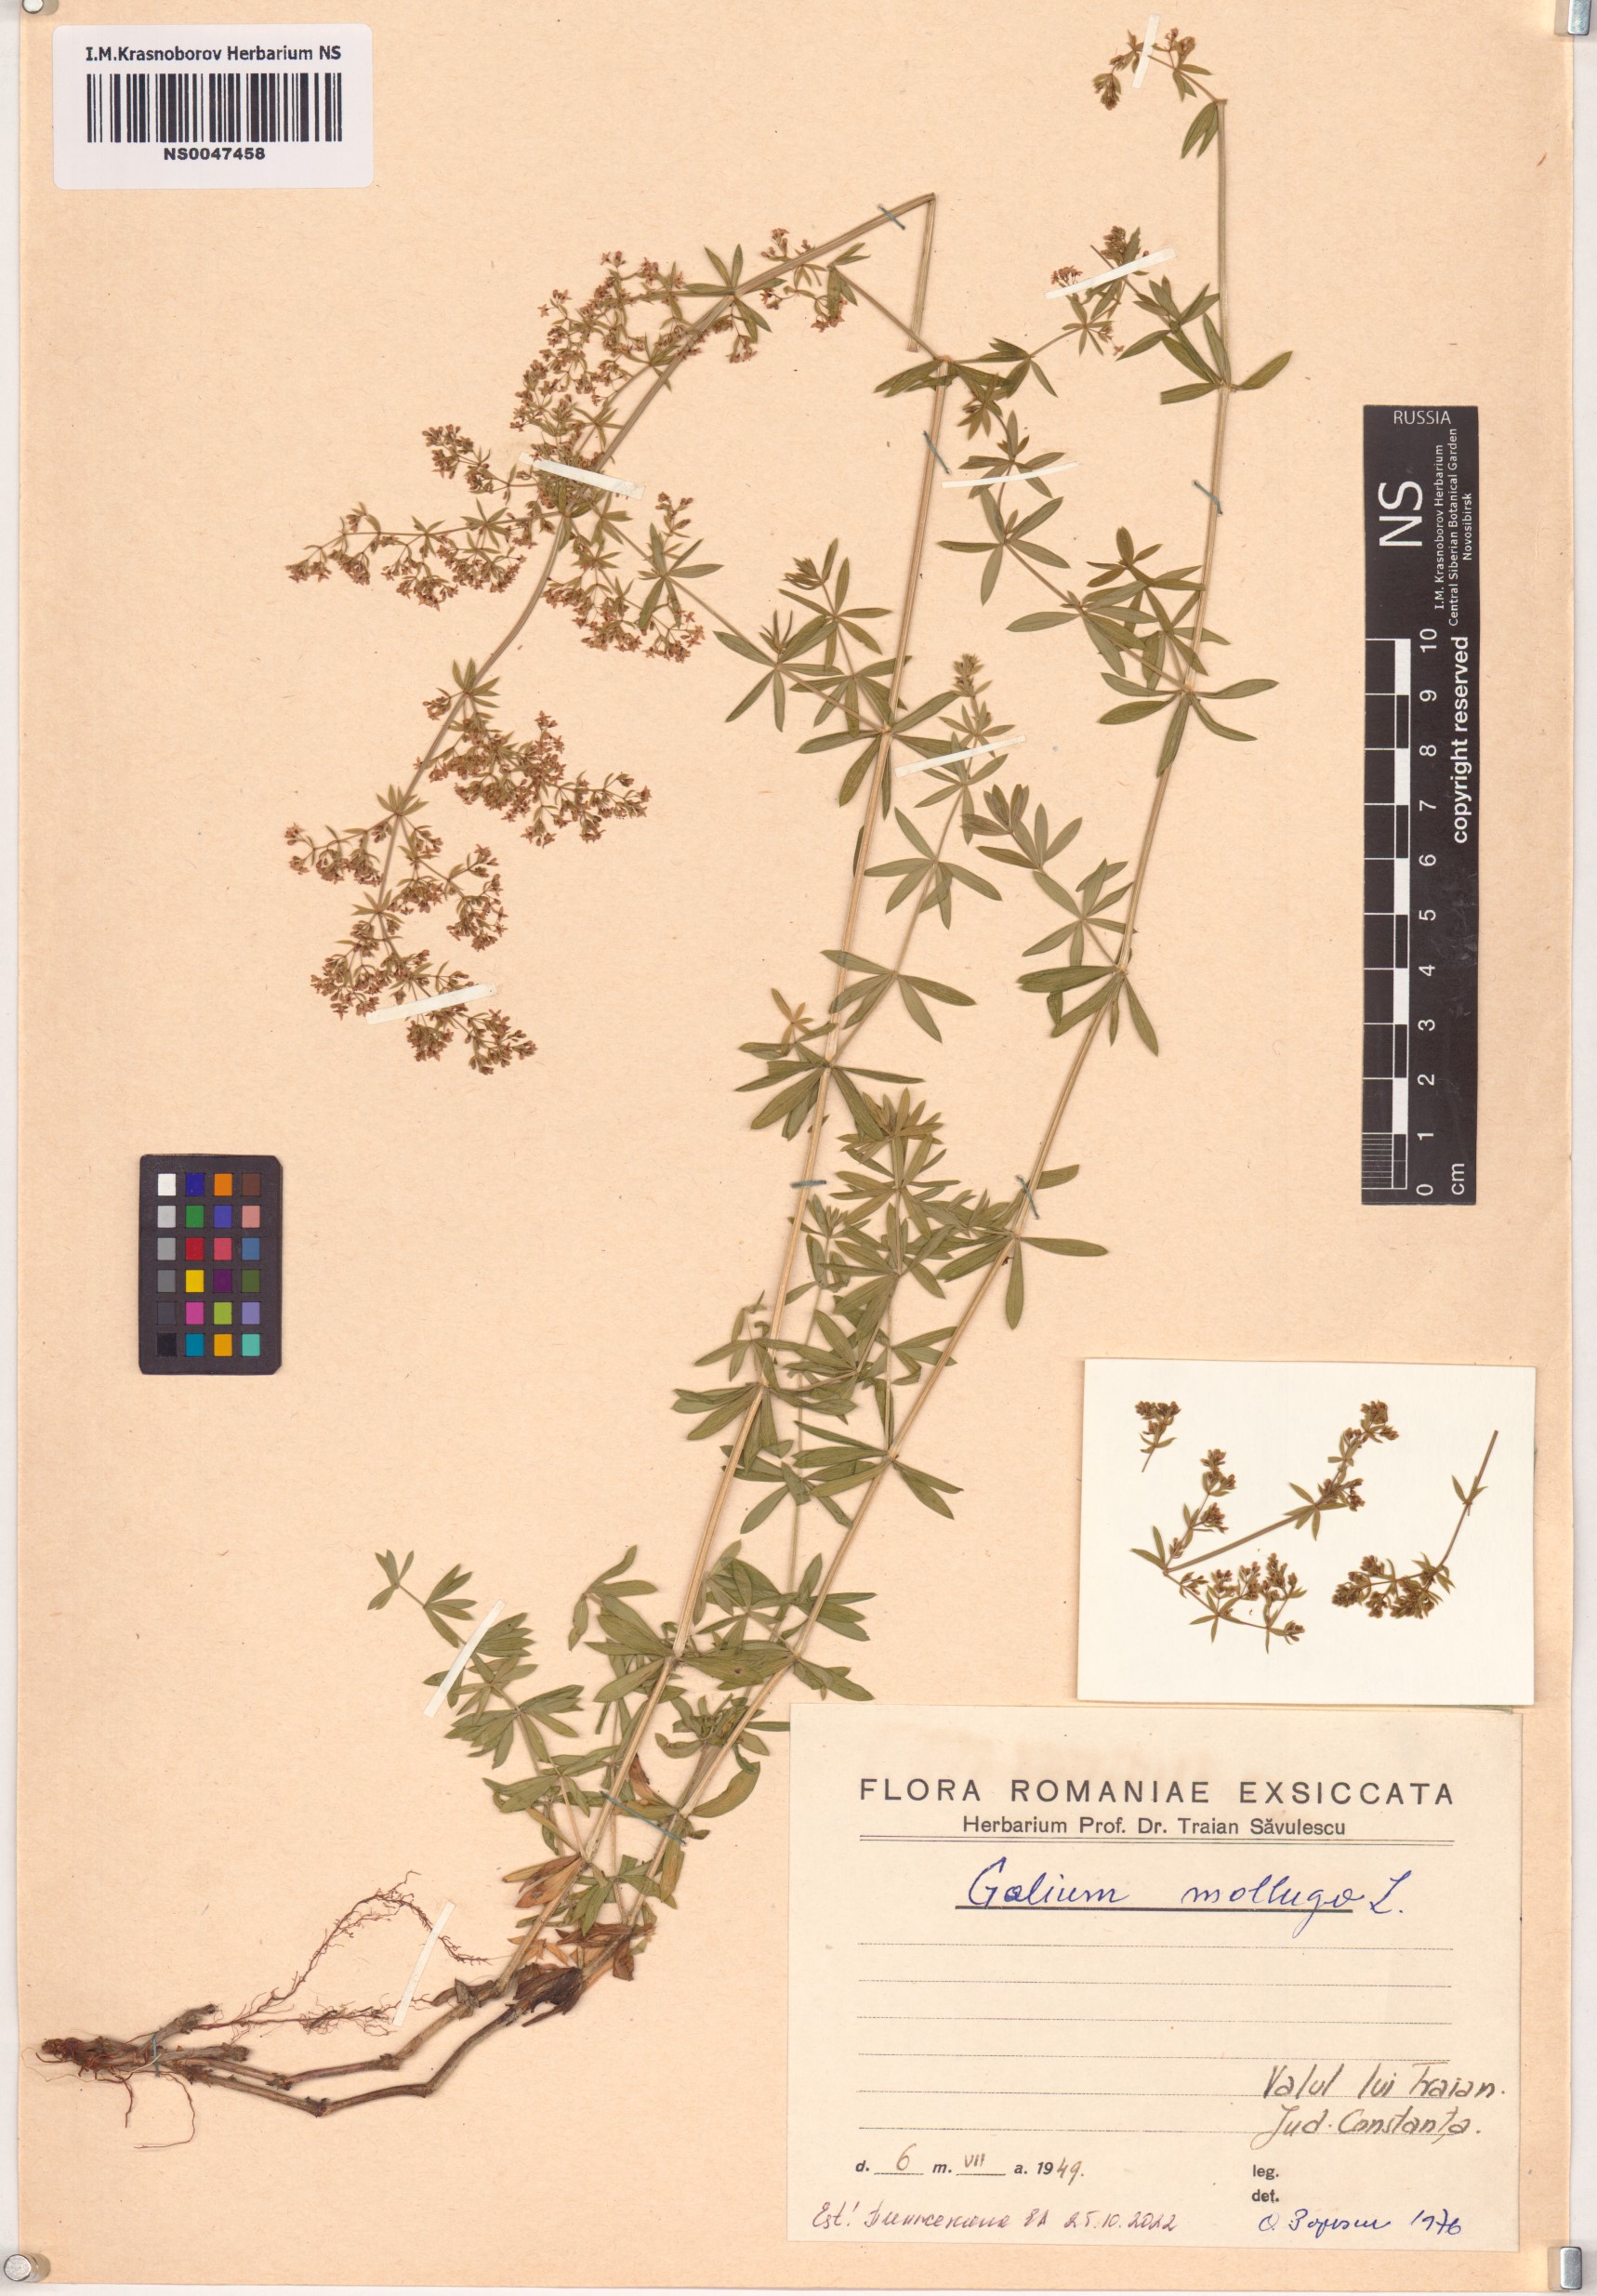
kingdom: Plantae
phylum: Tracheophyta
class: Magnoliopsida
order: Gentianales
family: Rubiaceae
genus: Galium
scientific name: Galium mollugo
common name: Hedge bedstraw
